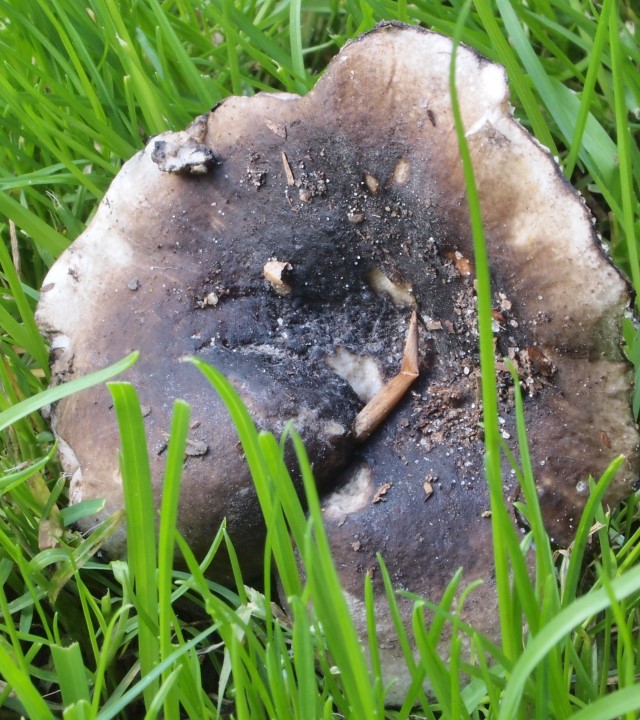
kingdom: Fungi
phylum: Basidiomycota
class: Agaricomycetes
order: Russulales
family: Russulaceae
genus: Russula
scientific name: Russula anthracina
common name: kul-skørhat
